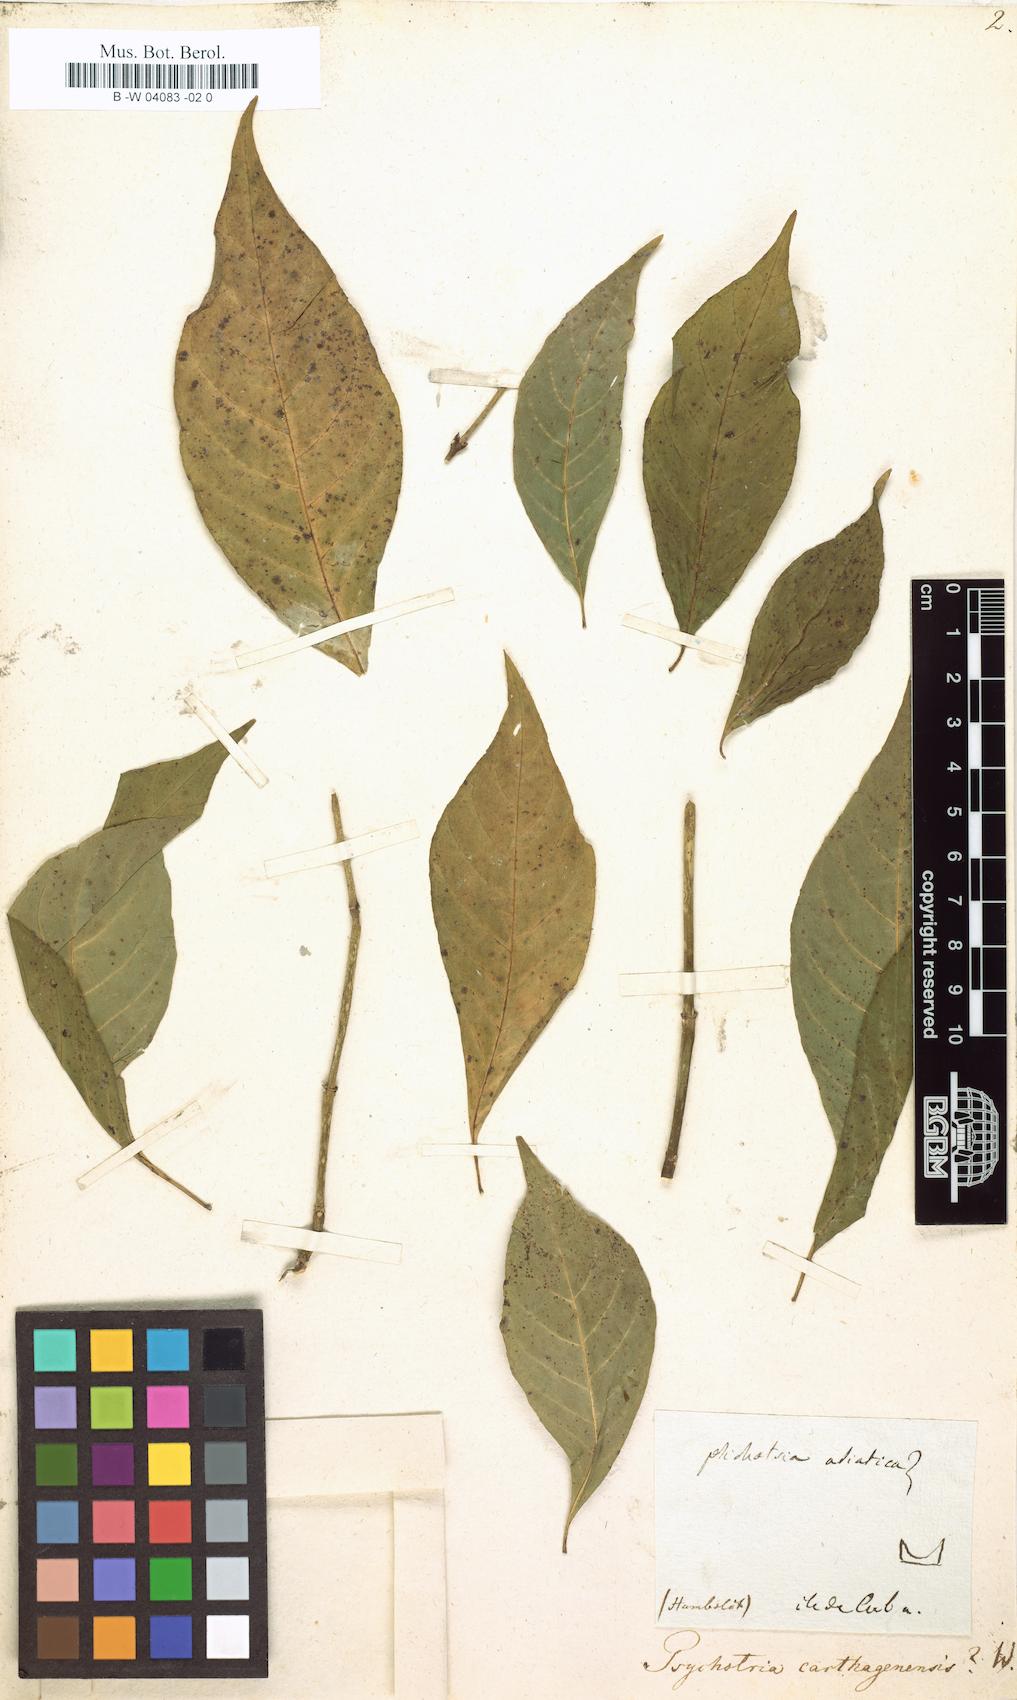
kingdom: Plantae
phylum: Tracheophyta
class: Magnoliopsida
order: Gentianales
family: Rubiaceae
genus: Psychotria
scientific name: Psychotria carthagenensis
